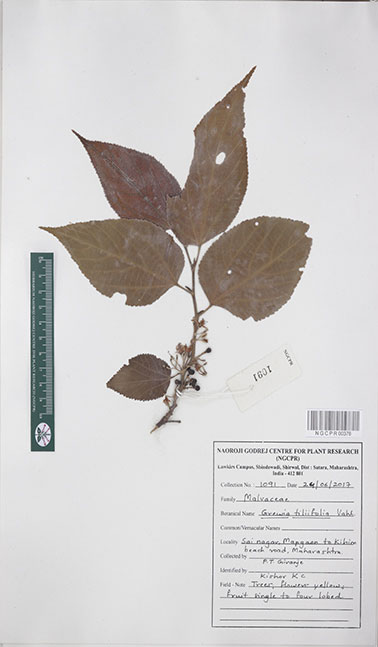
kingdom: Plantae
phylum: Tracheophyta
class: Magnoliopsida
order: Malvales
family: Malvaceae
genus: Grewia
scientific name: Grewia tiliifolia
